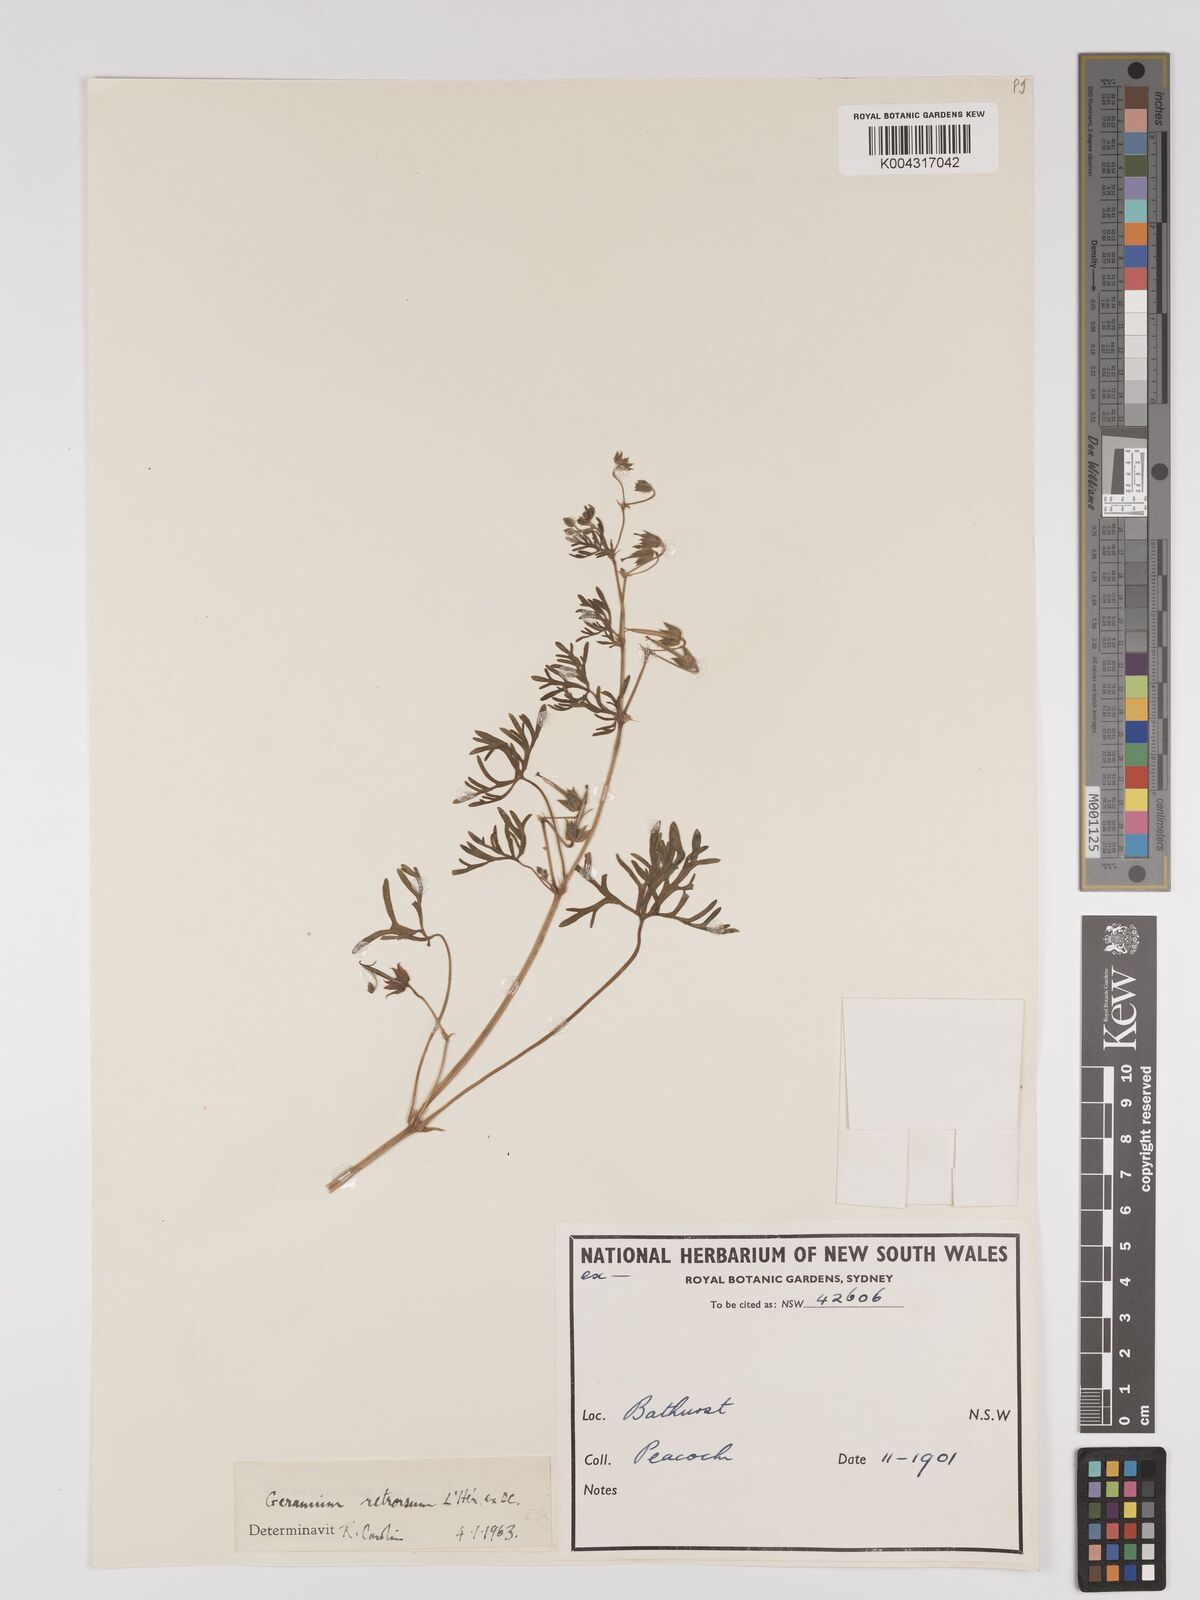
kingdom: Plantae
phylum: Tracheophyta
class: Magnoliopsida
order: Geraniales
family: Geraniaceae
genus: Geranium
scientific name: Geranium retrorsum
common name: New zealand geranium
